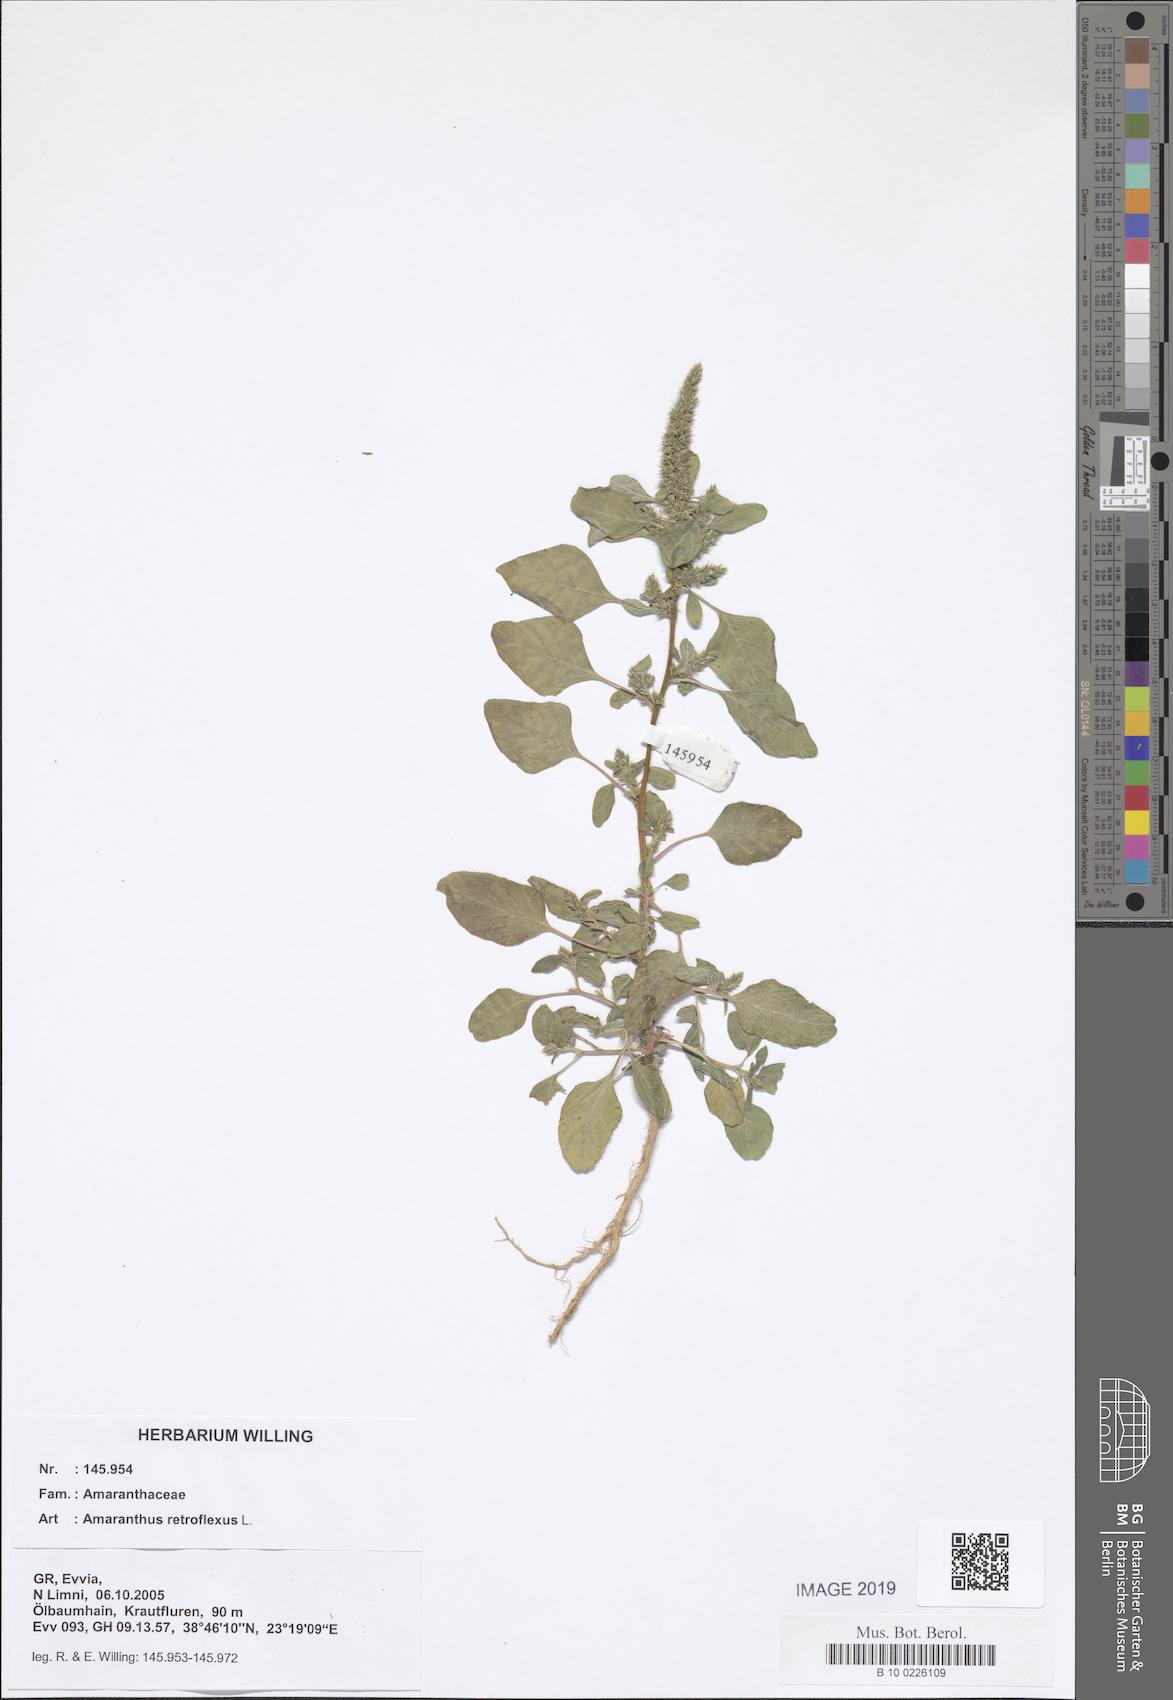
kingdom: Plantae
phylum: Tracheophyta
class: Magnoliopsida
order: Caryophyllales
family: Amaranthaceae
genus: Amaranthus
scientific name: Amaranthus retroflexus
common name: Redroot amaranth
